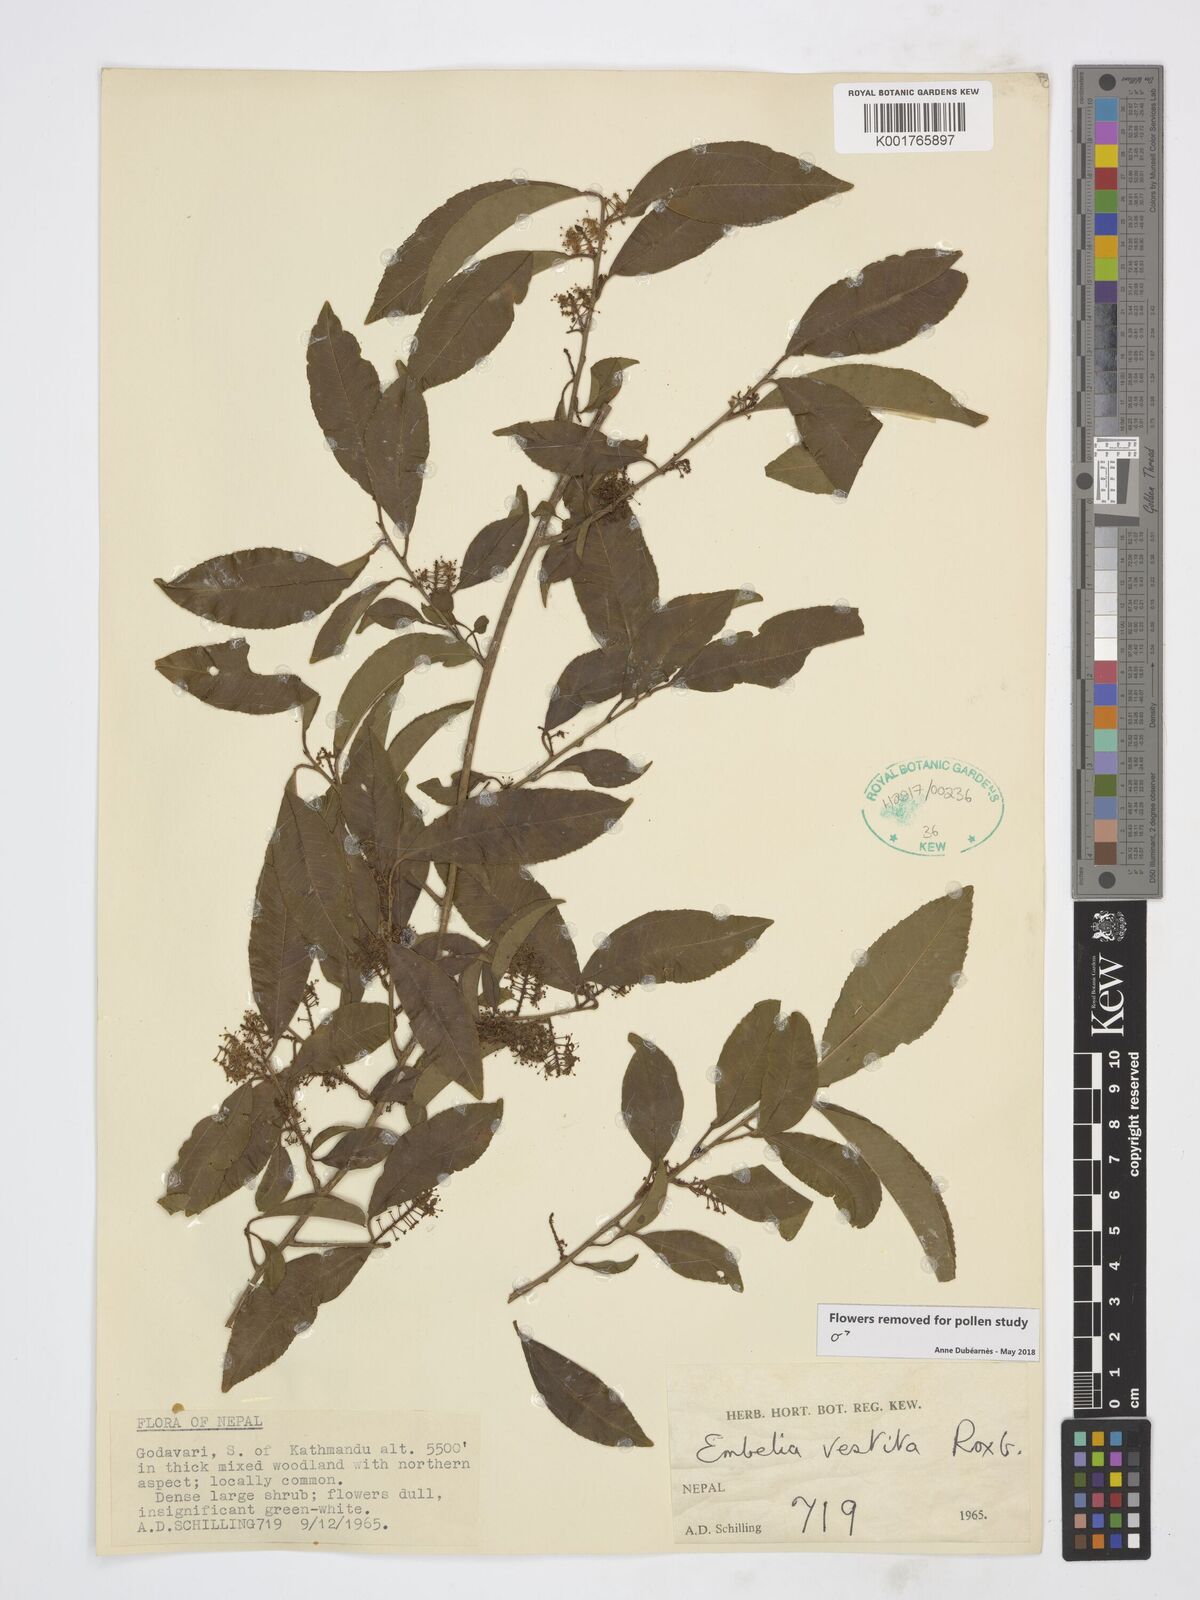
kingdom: Plantae
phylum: Tracheophyta
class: Magnoliopsida
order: Ericales
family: Primulaceae
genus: Embelia
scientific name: Embelia vestita
